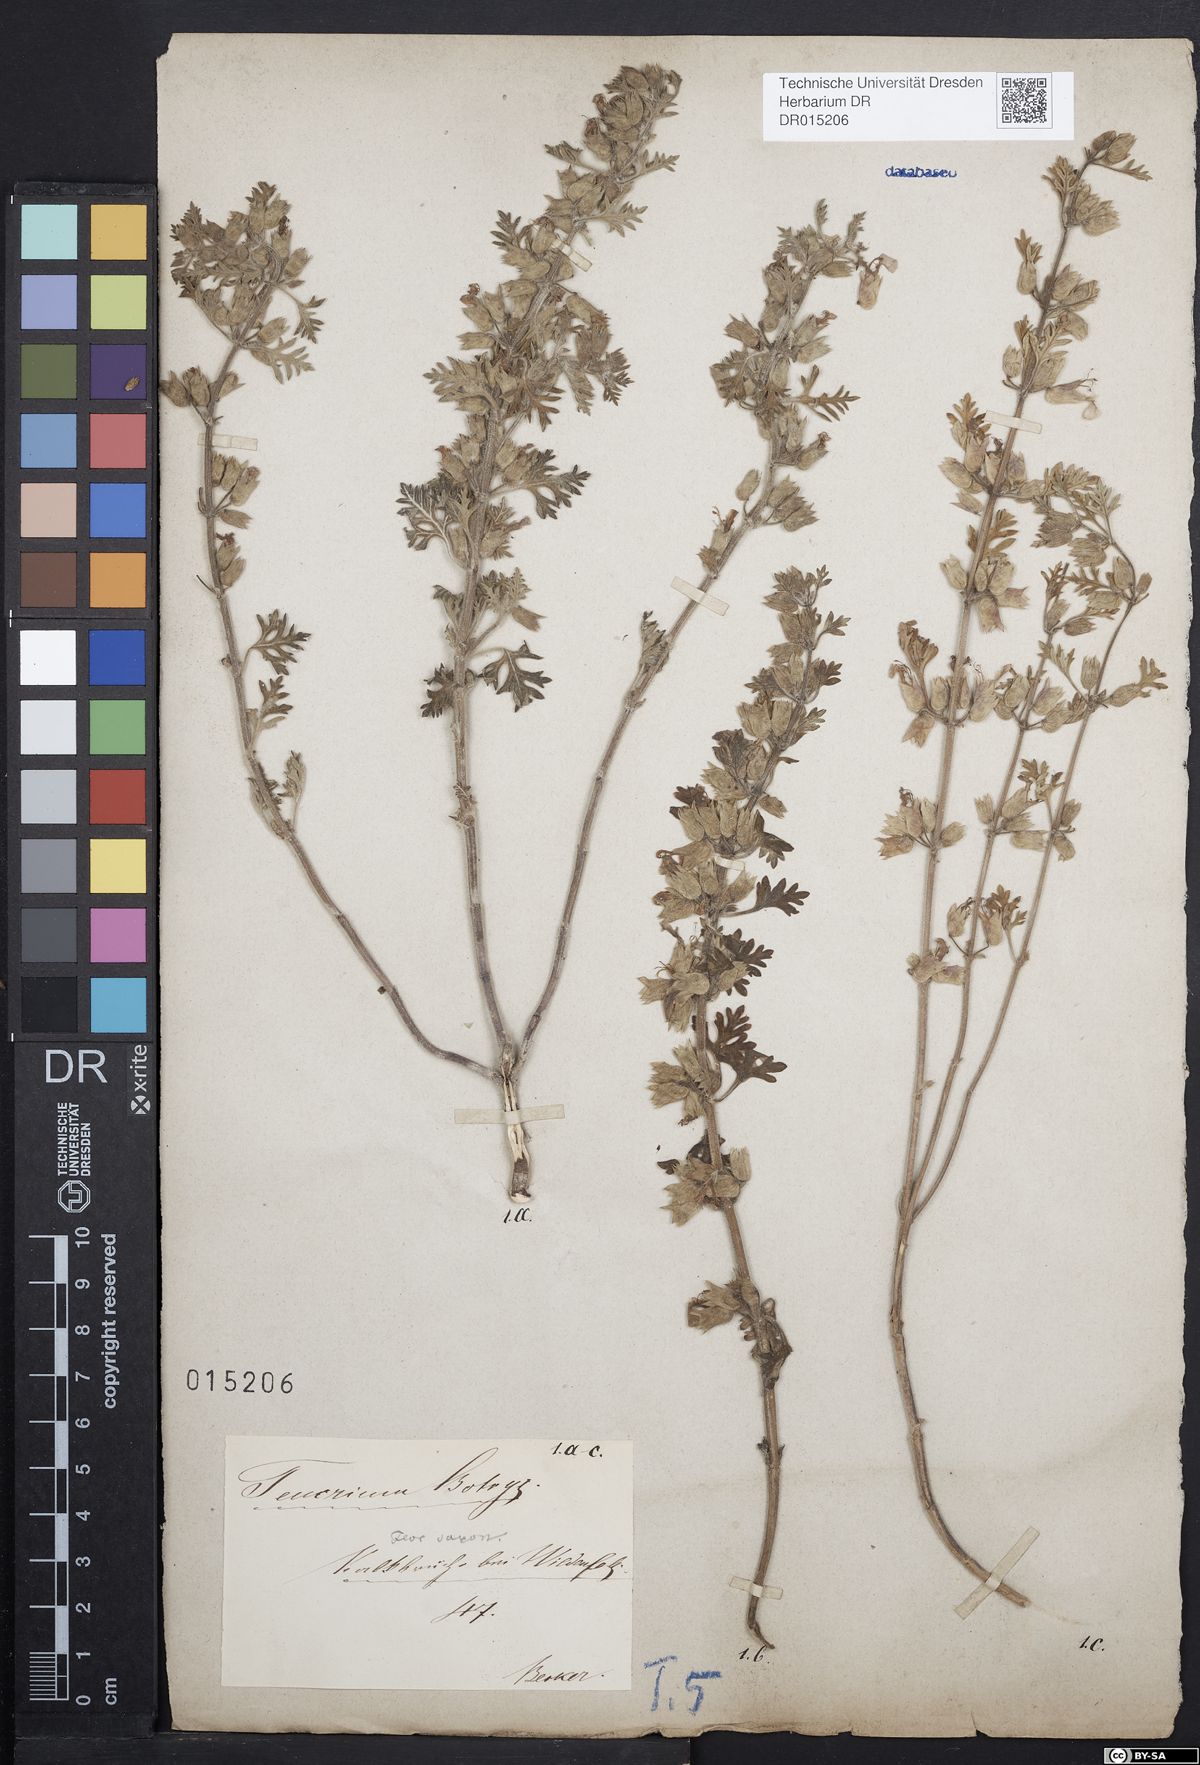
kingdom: Plantae
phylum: Tracheophyta
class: Magnoliopsida
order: Lamiales
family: Lamiaceae
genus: Teucrium
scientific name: Teucrium botrys
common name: Cut-leaved germander
